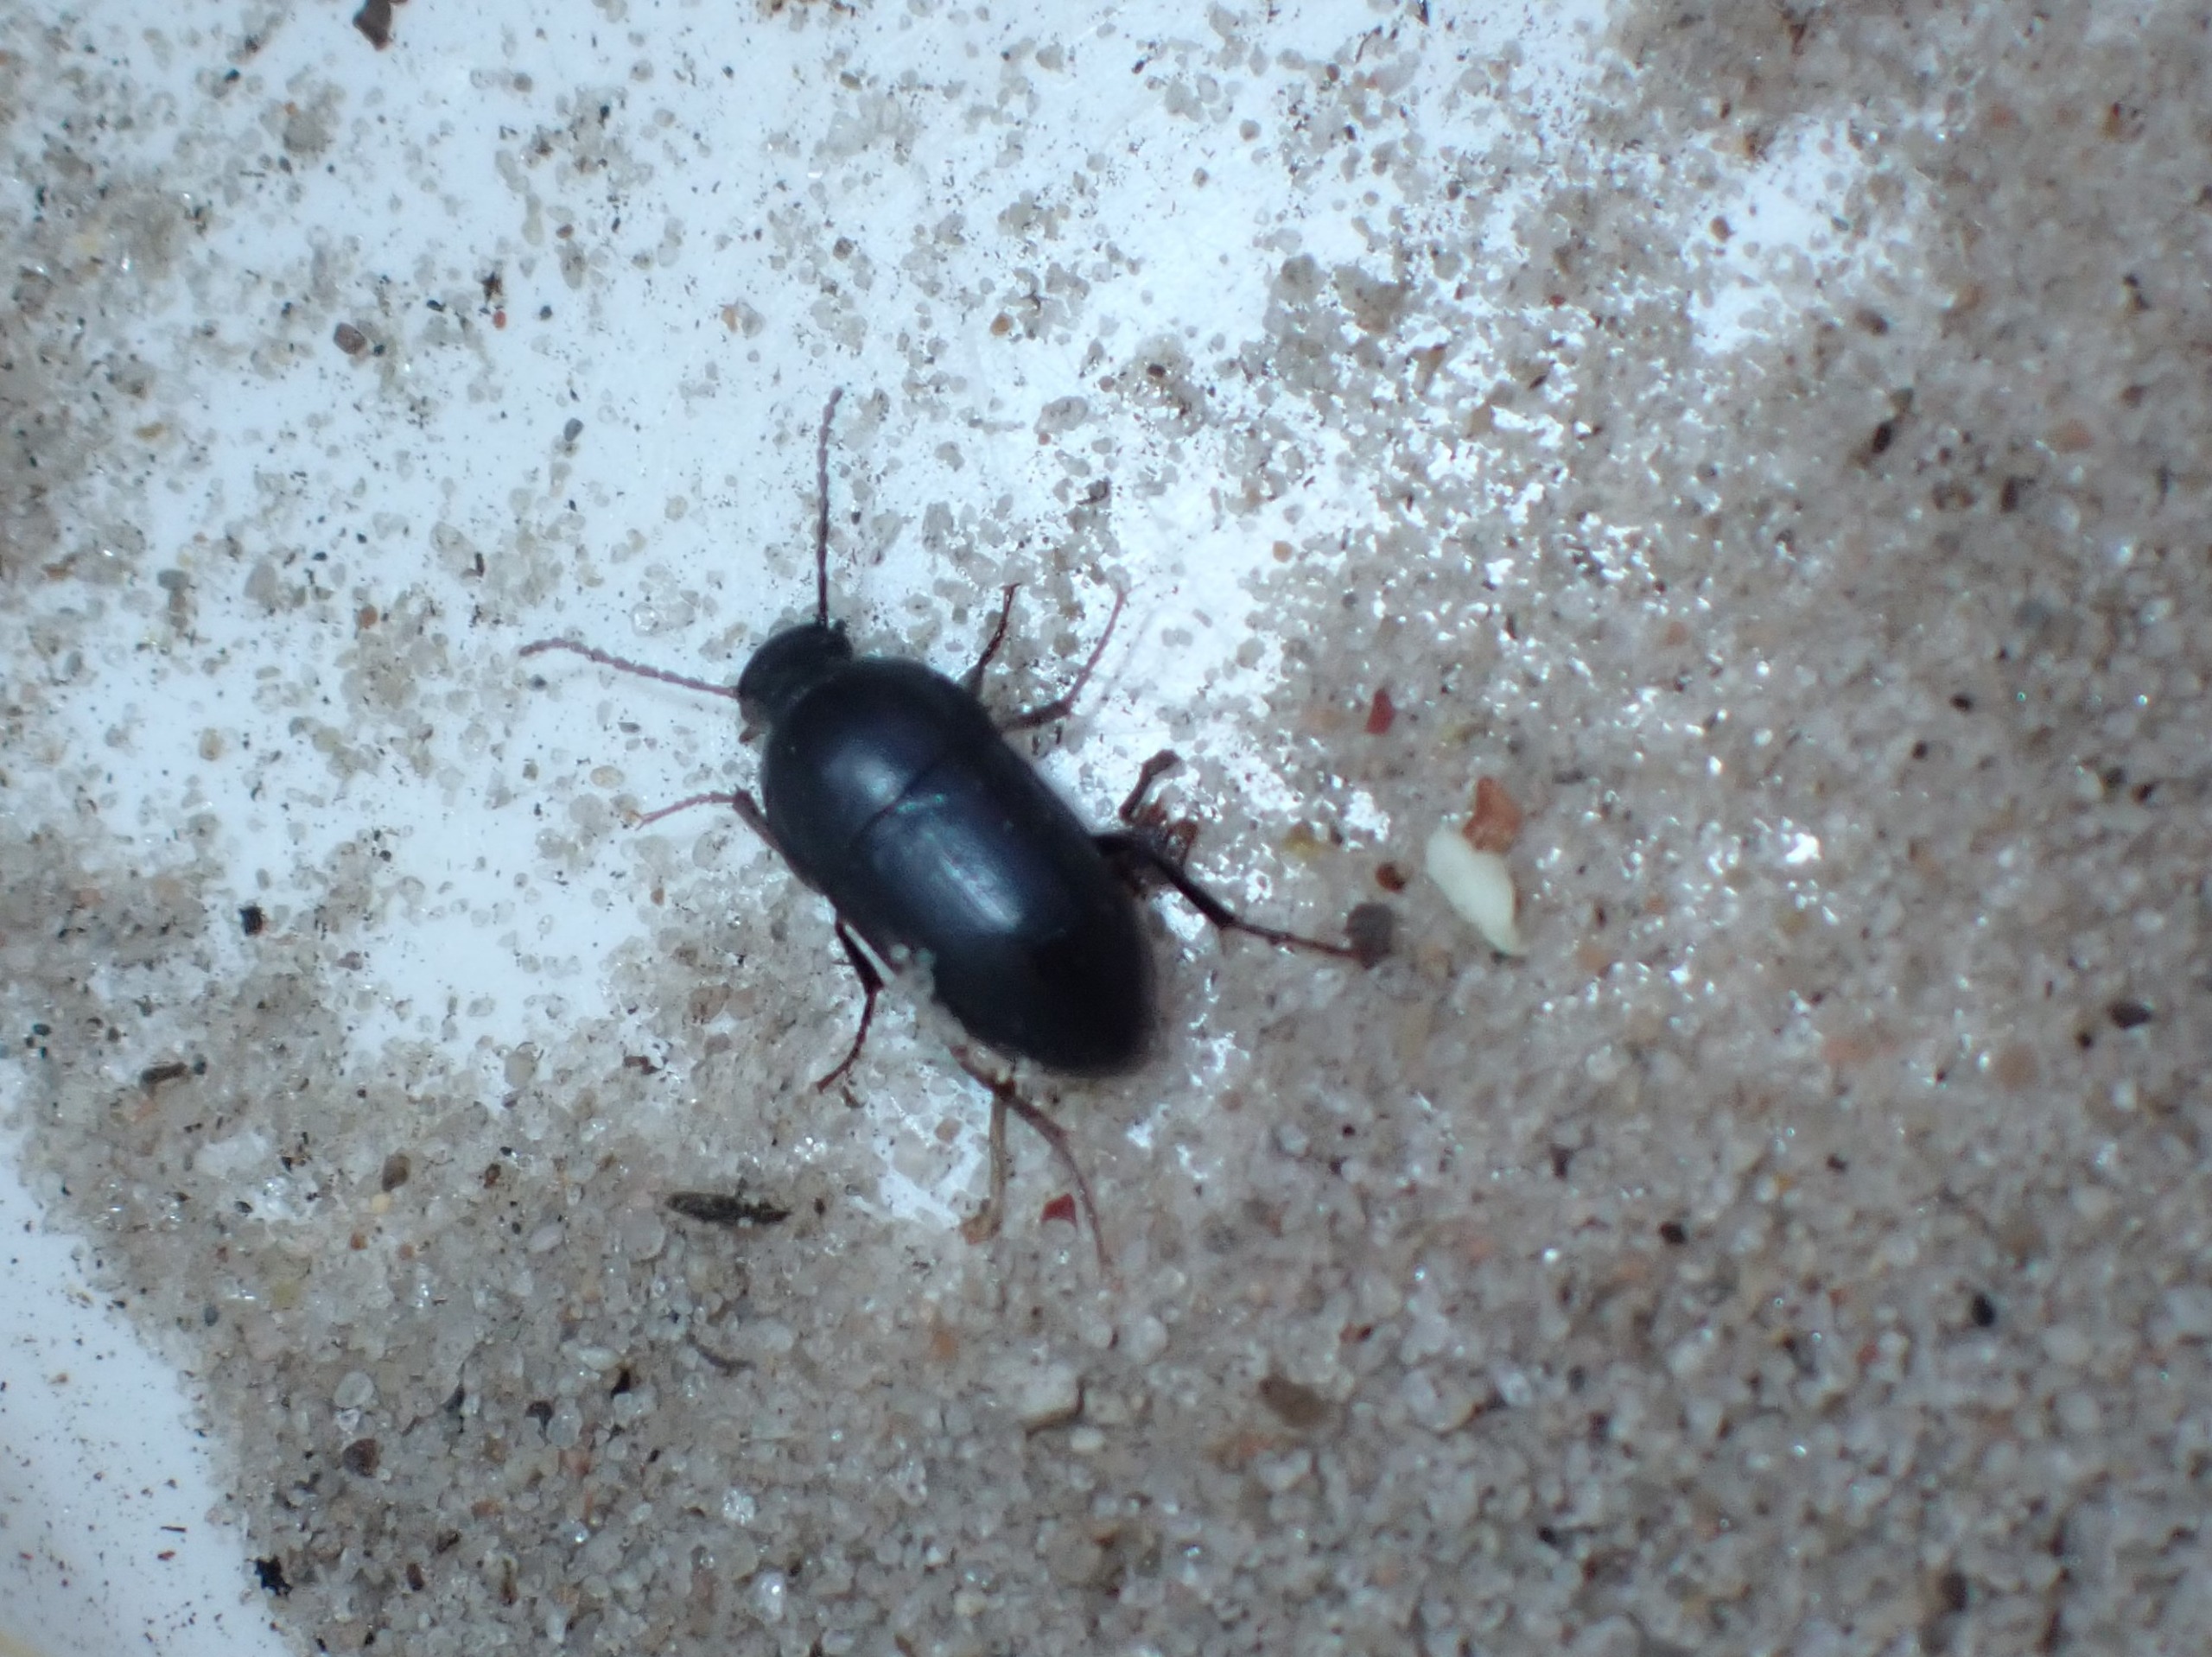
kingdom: Animalia
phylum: Arthropoda
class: Insecta
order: Coleoptera
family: Tenebrionidae
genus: Crypticus
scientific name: Crypticus quisquilius
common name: Sandskyggebille
